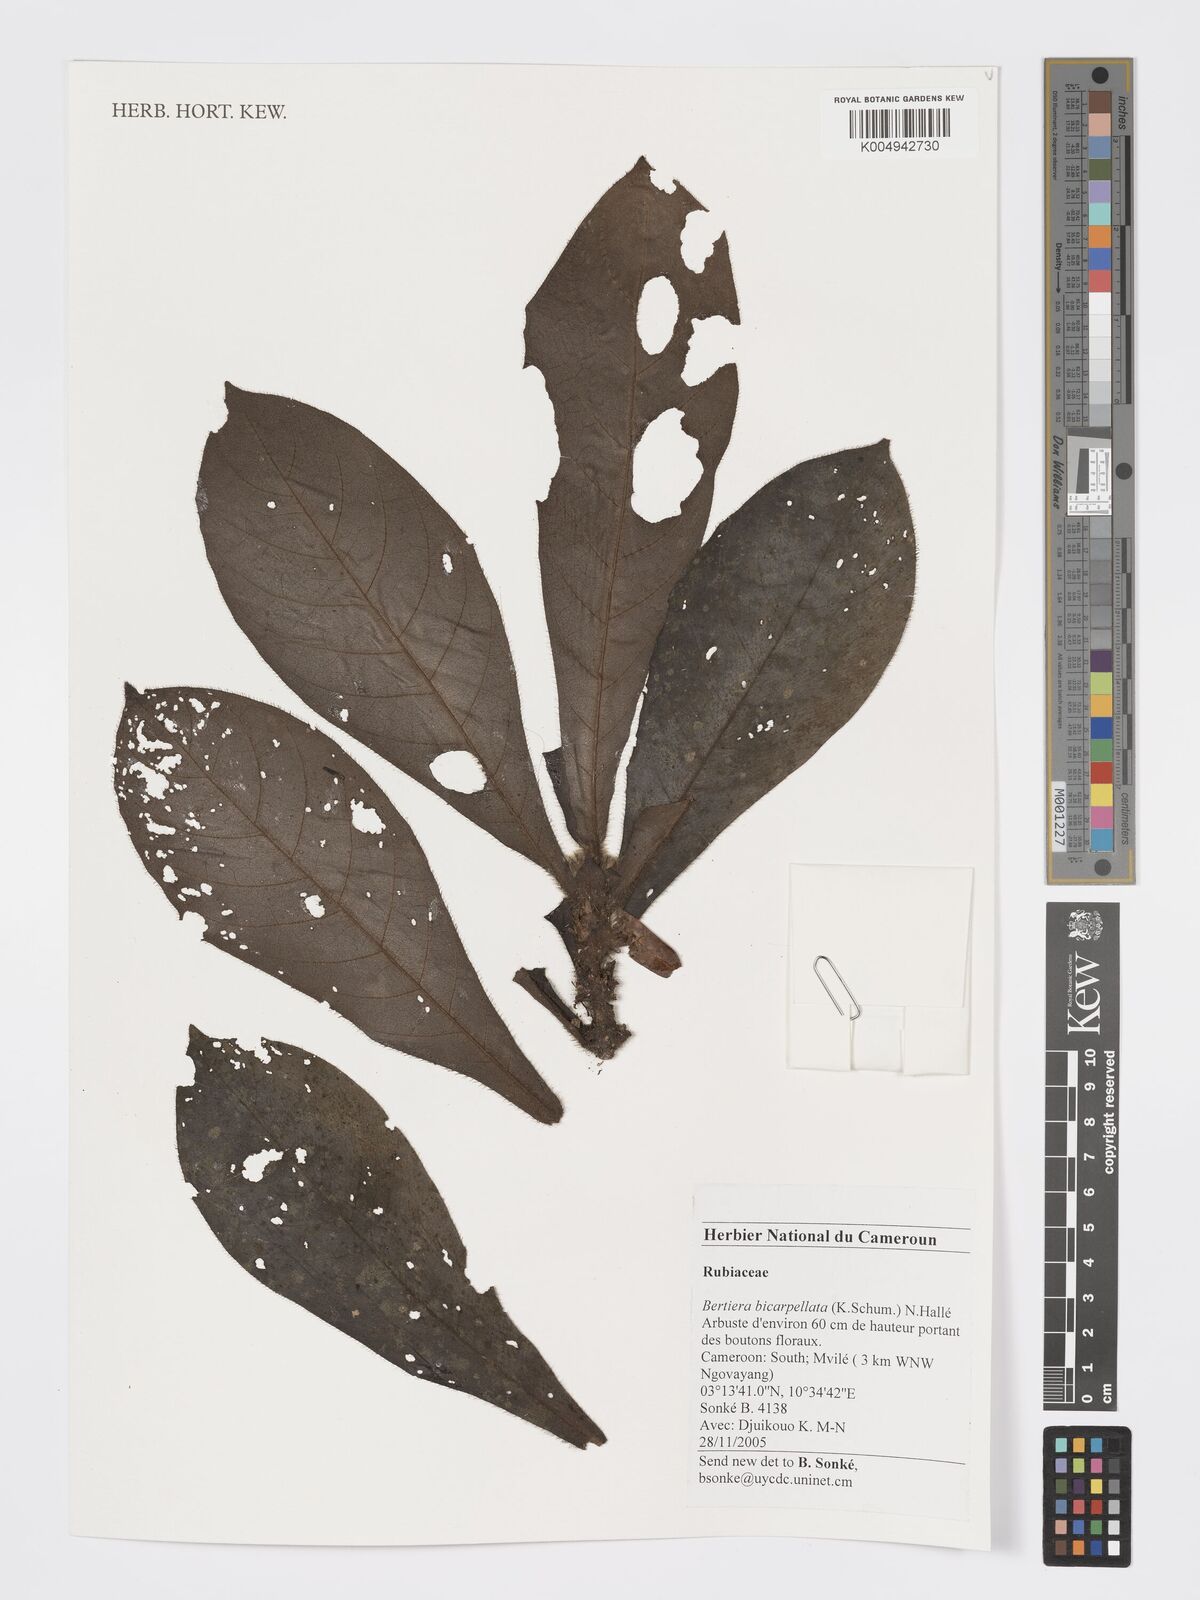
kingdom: Plantae
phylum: Tracheophyta
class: Magnoliopsida
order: Gentianales
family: Rubiaceae
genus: Bertiera
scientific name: Bertiera bicarpellata
